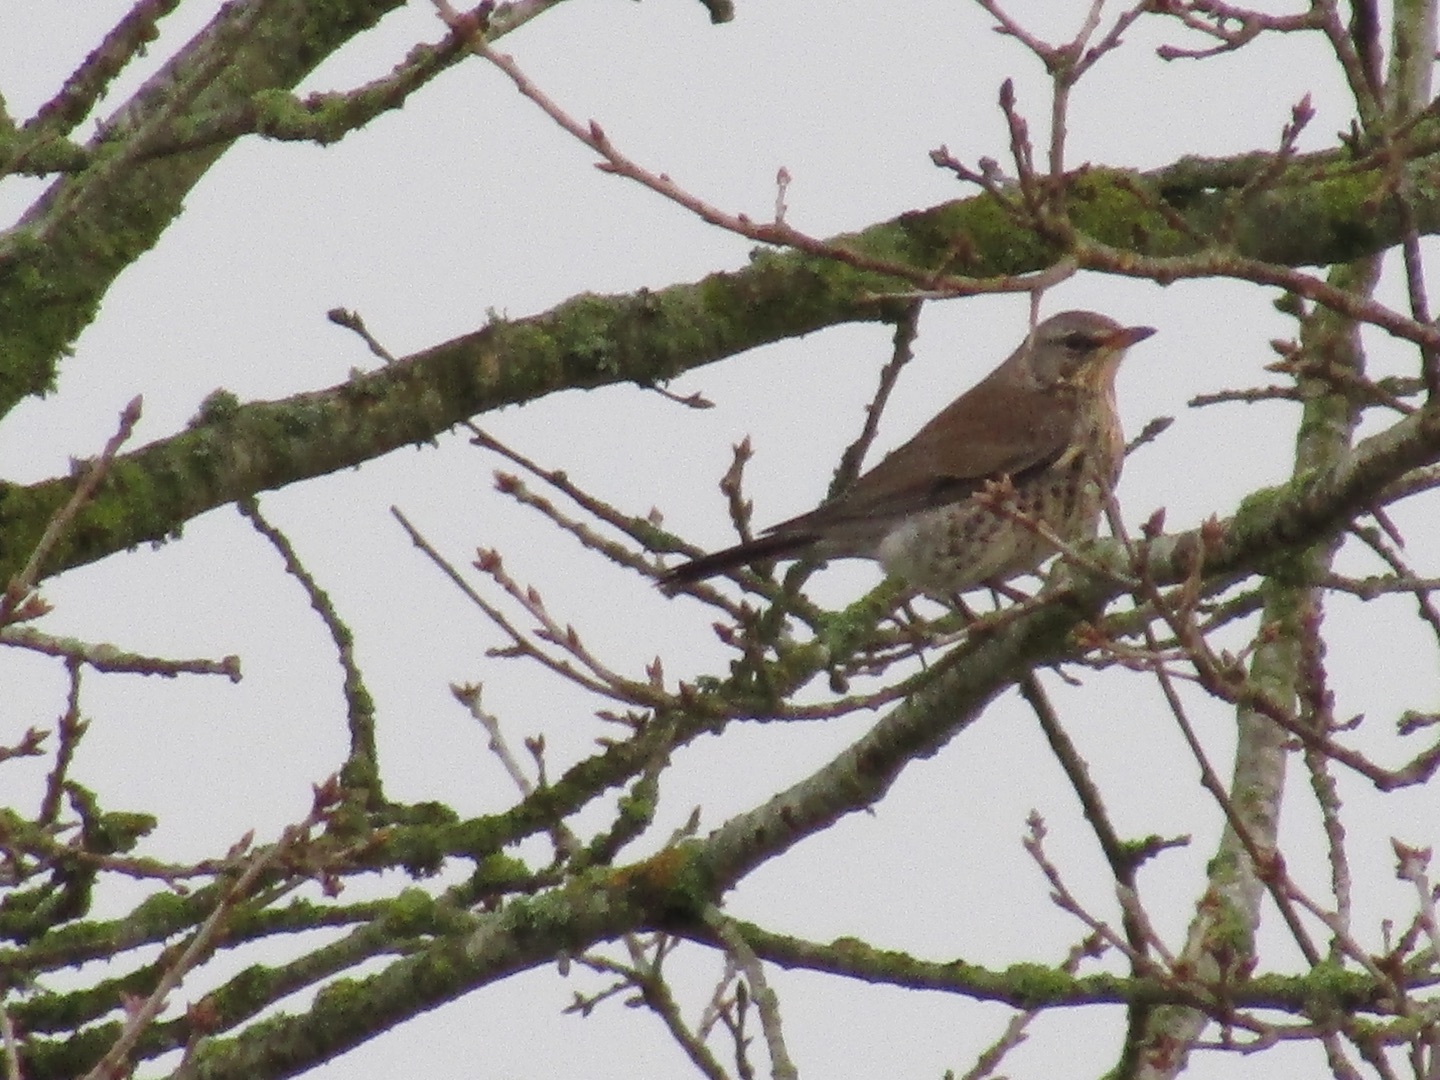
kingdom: Animalia
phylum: Chordata
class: Aves
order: Passeriformes
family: Turdidae
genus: Turdus
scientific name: Turdus pilaris
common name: Sjagger
